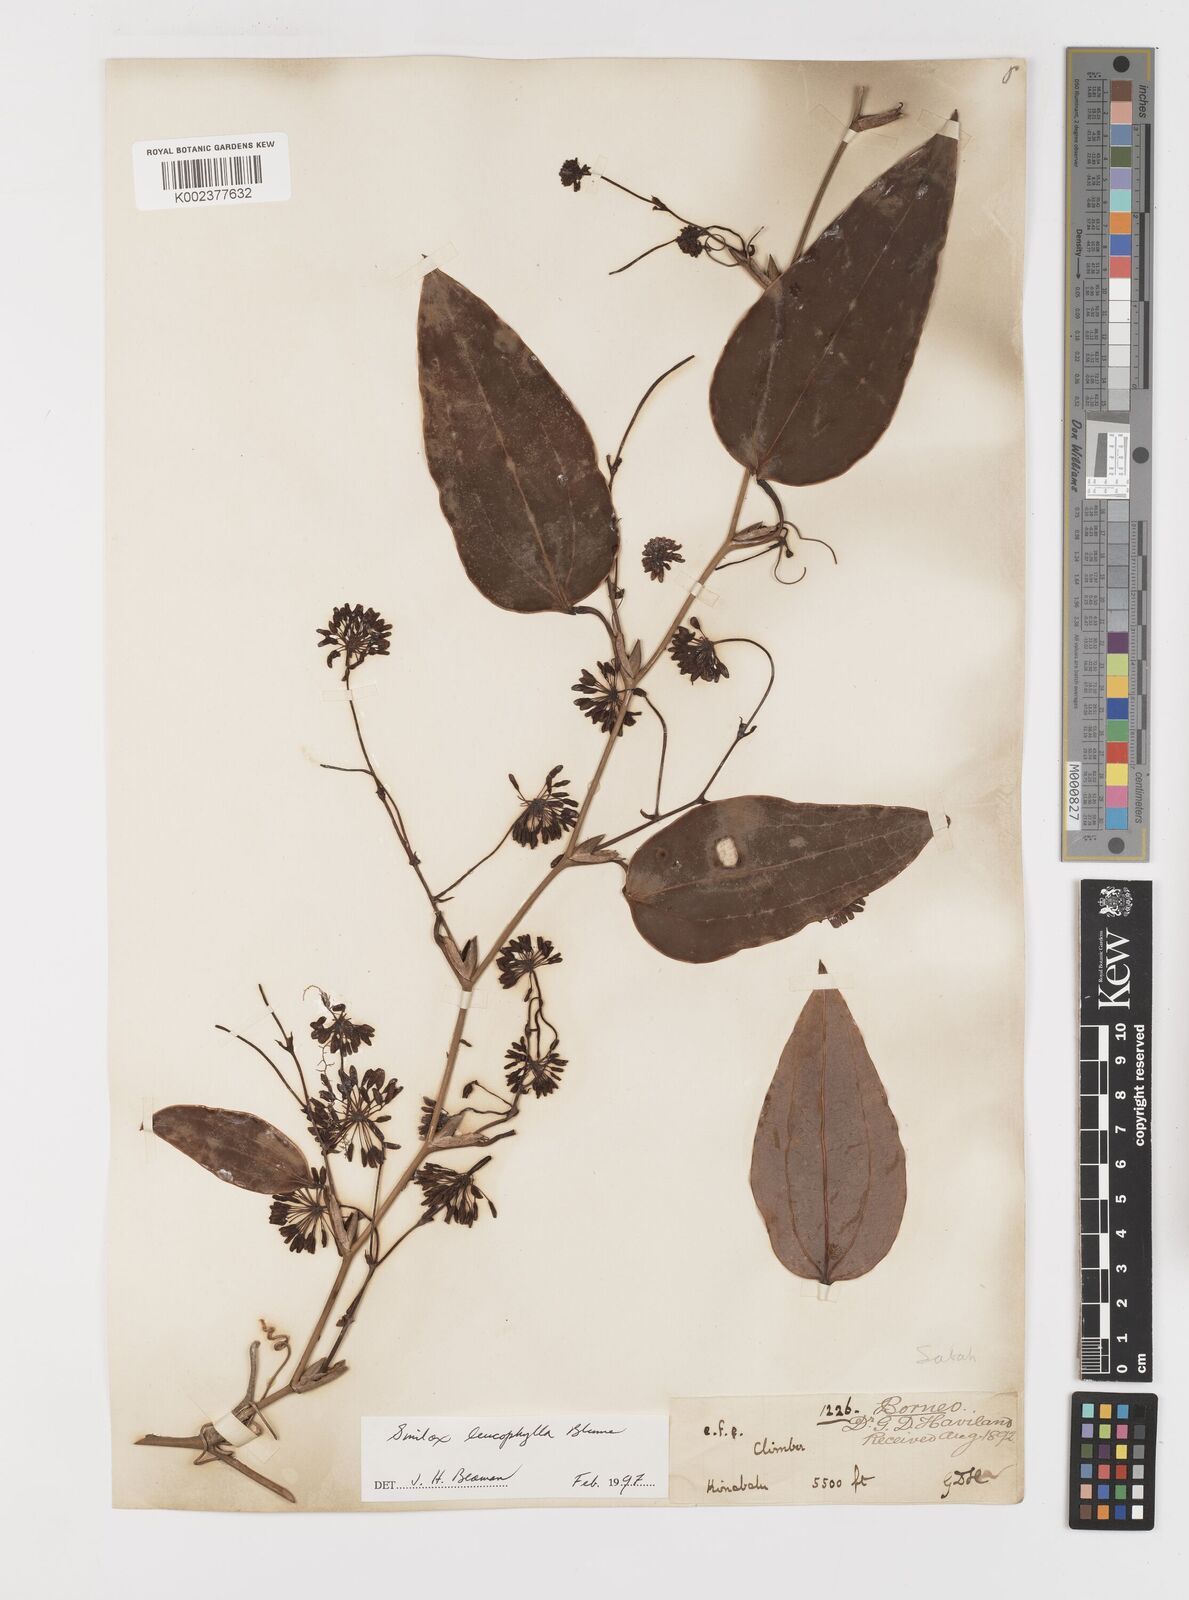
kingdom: Plantae
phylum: Tracheophyta
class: Liliopsida
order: Liliales
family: Smilacaceae
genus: Smilax
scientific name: Smilax leucophylla
